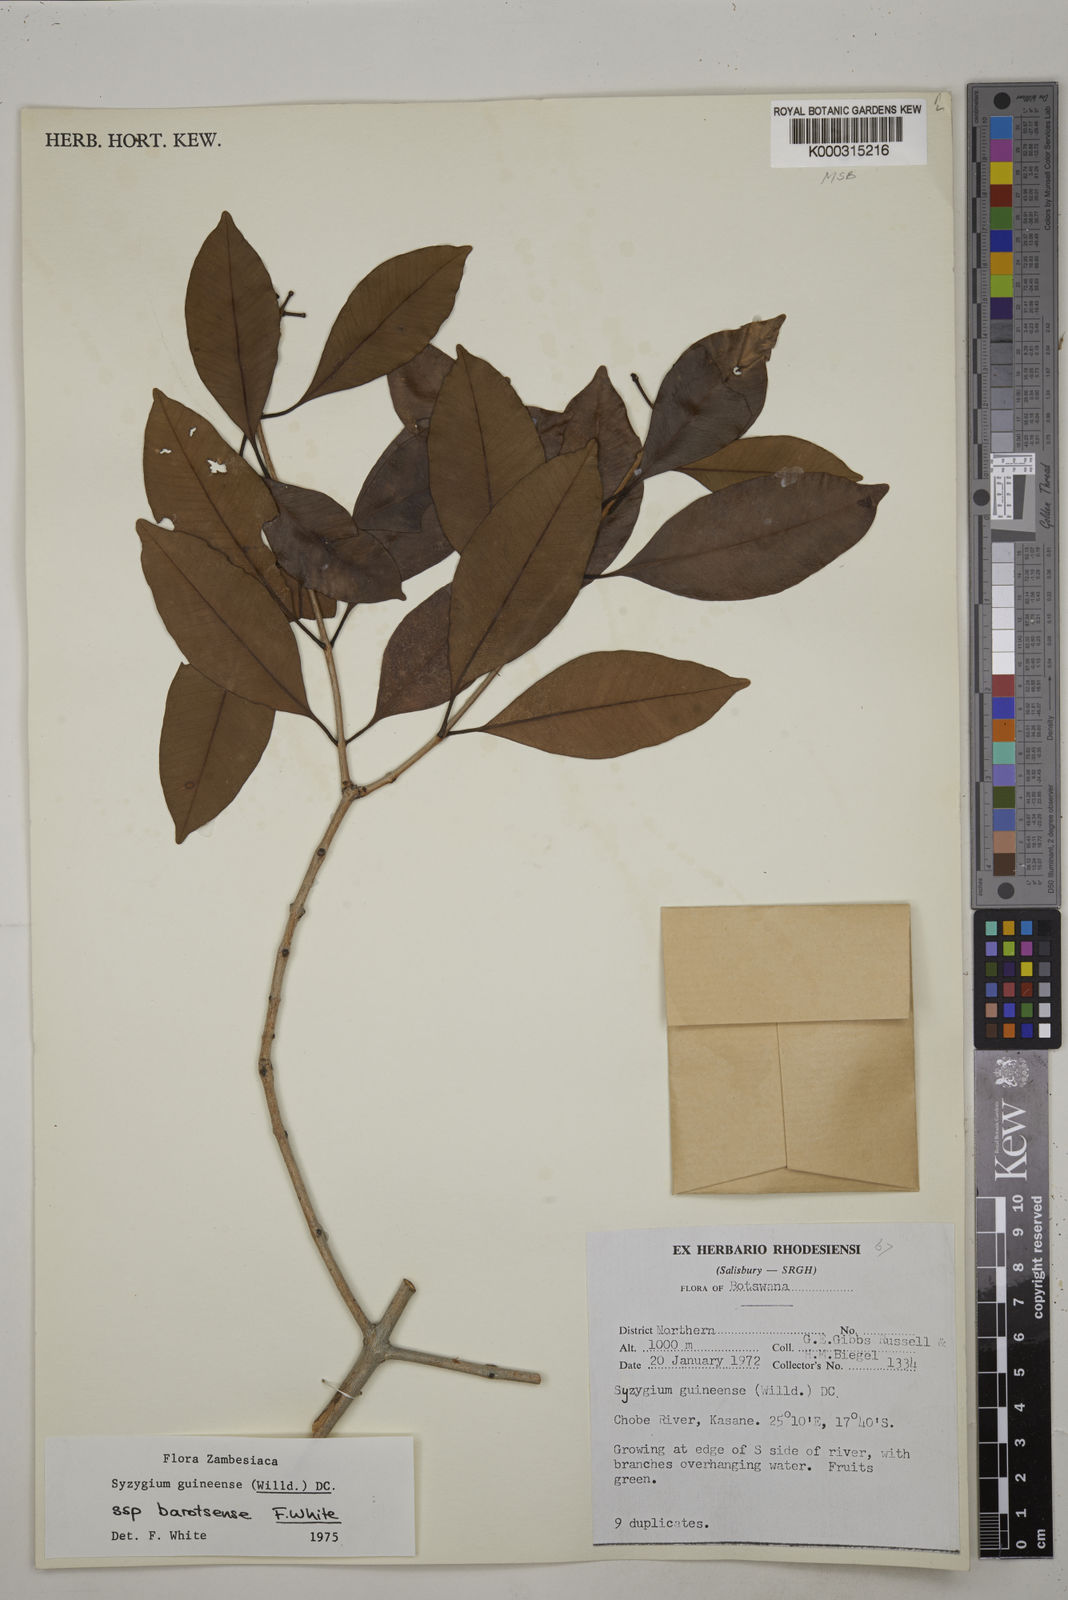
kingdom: Plantae
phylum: Tracheophyta
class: Magnoliopsida
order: Myrtales
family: Myrtaceae
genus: Syzygium
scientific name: Syzygium guineense
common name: Water-pear
